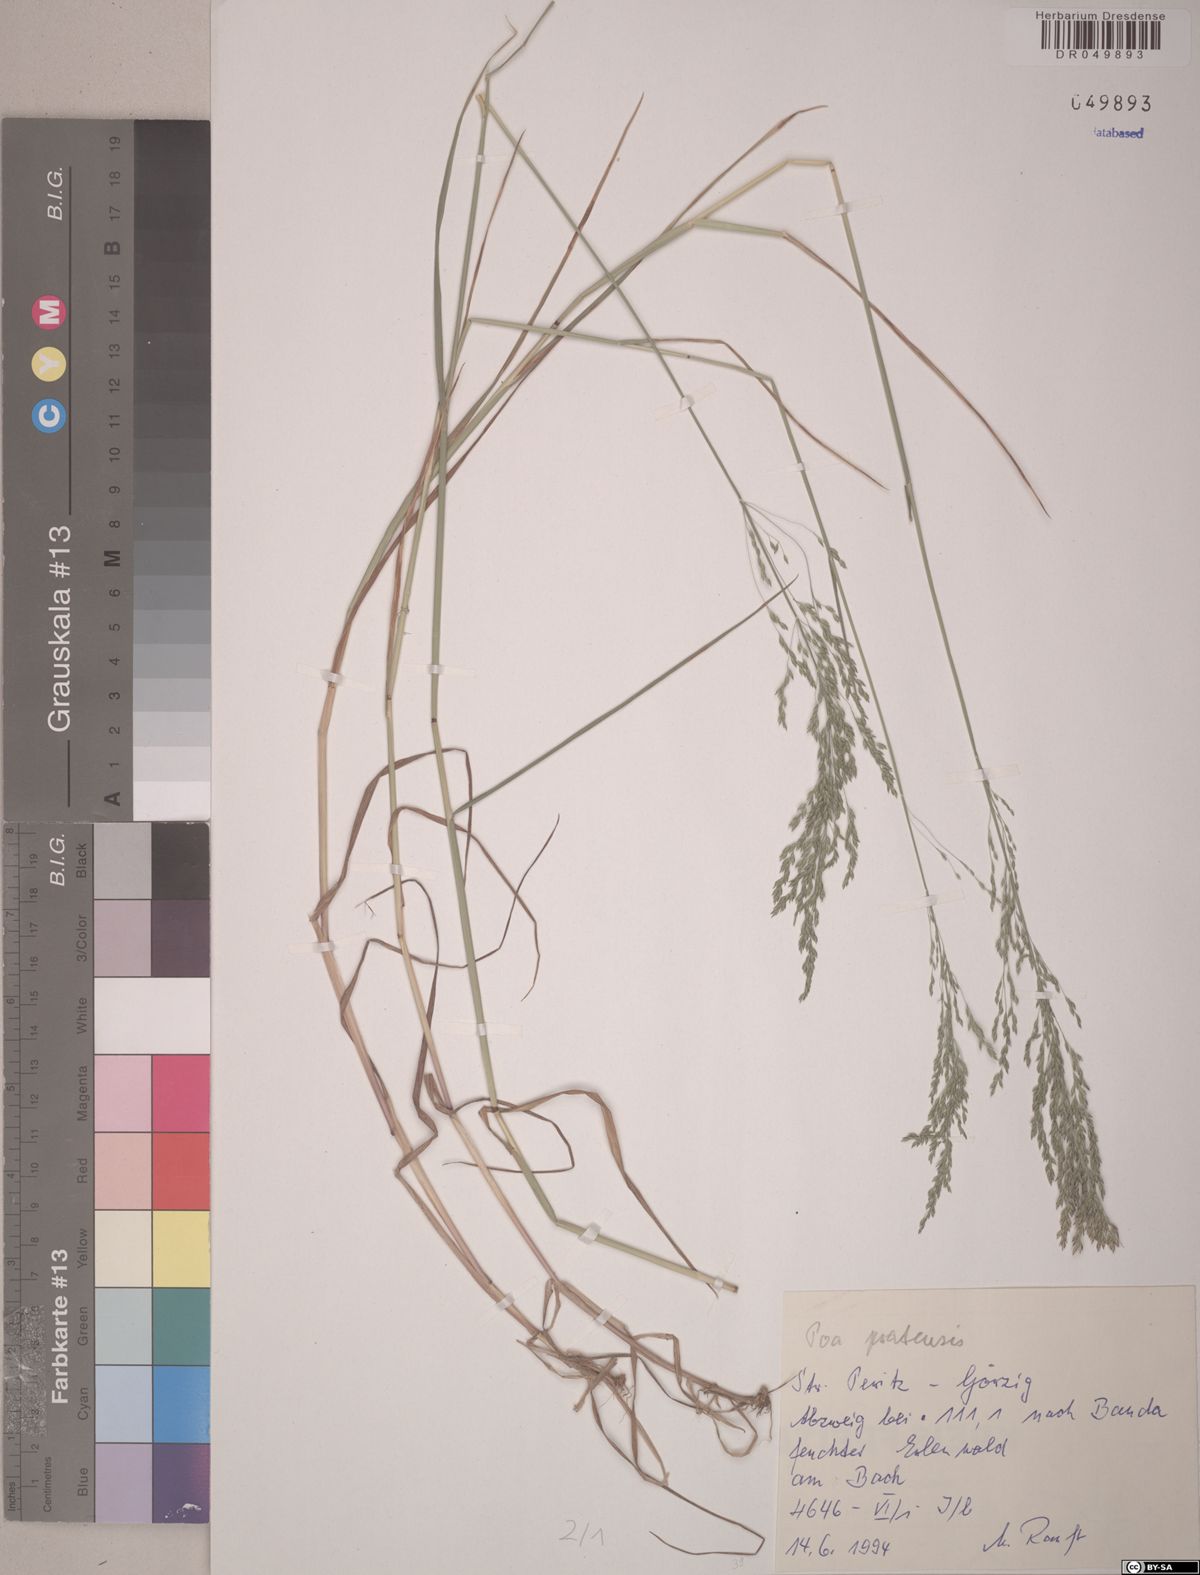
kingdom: Plantae
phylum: Tracheophyta
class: Liliopsida
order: Poales
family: Poaceae
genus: Poa
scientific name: Poa pratensis
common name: Kentucky bluegrass
